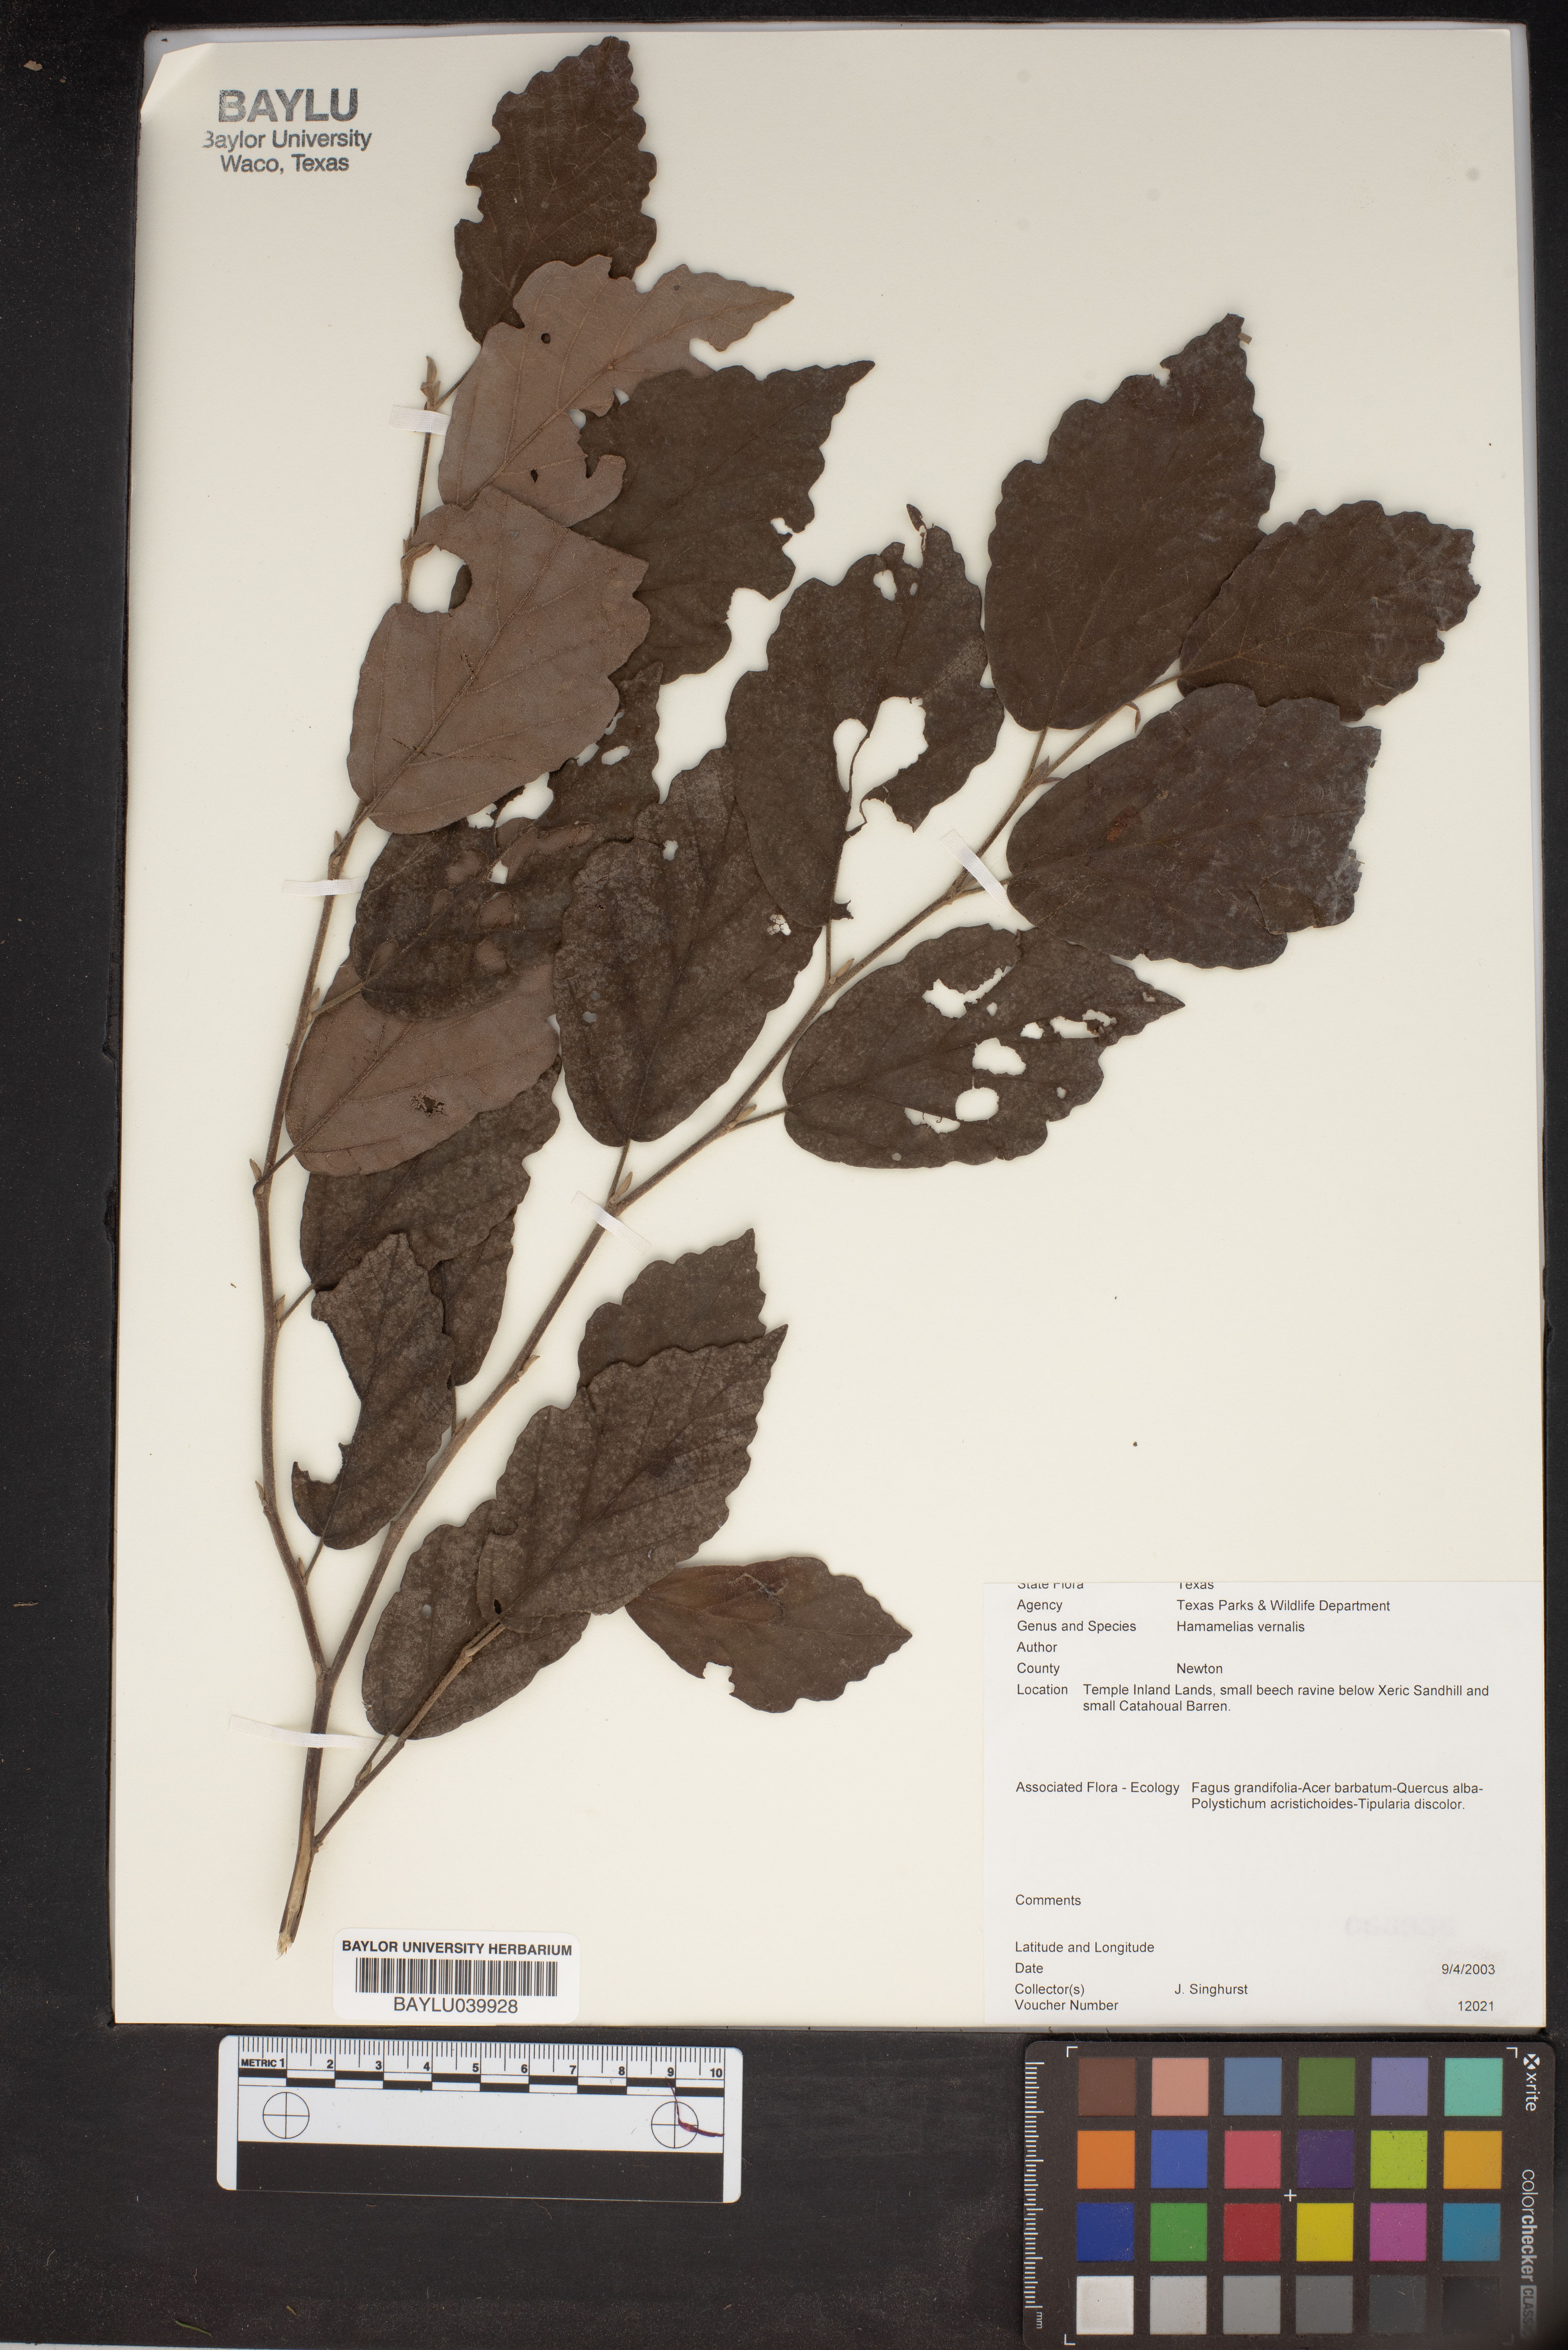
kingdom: Plantae
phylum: Tracheophyta
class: Magnoliopsida
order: Saxifragales
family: Hamamelidaceae
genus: Hamamelis
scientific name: Hamamelis vernalis
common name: Ozark witch-hazel
